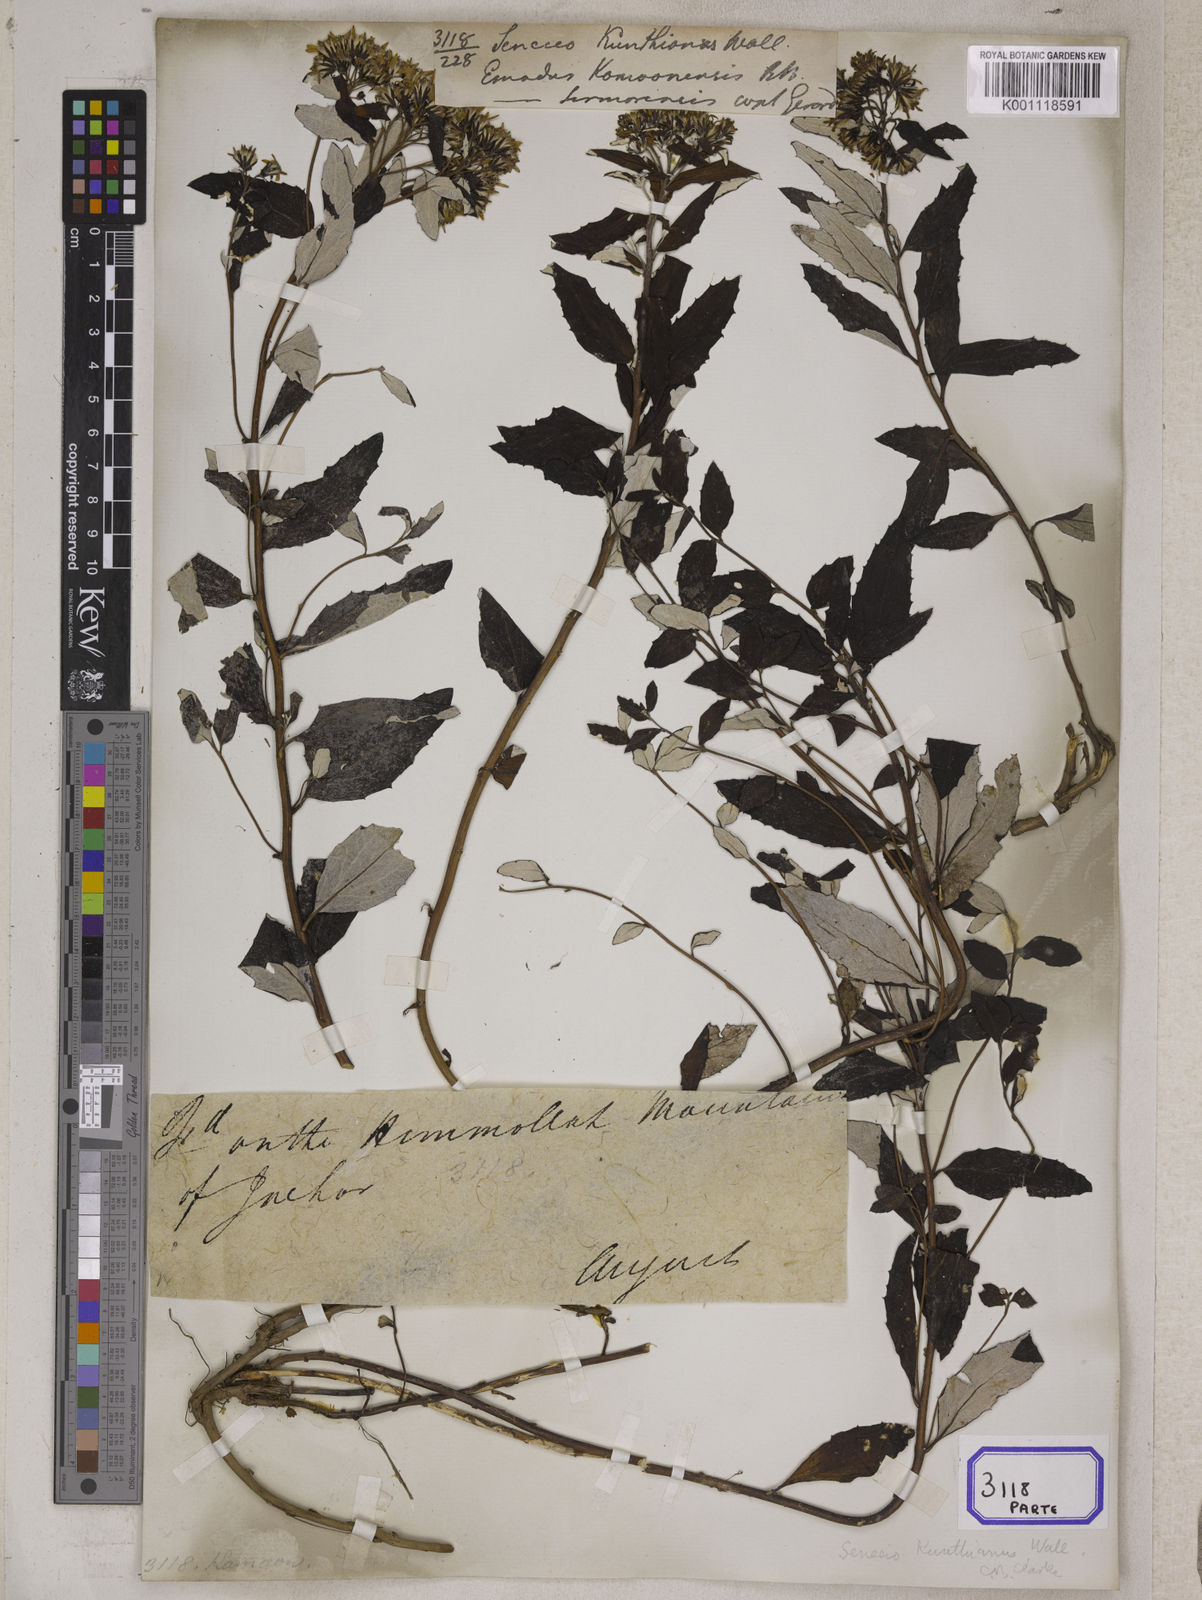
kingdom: Plantae
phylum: Tracheophyta
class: Magnoliopsida
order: Asterales
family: Asteraceae
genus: Synotis
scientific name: Synotis kunthiana
